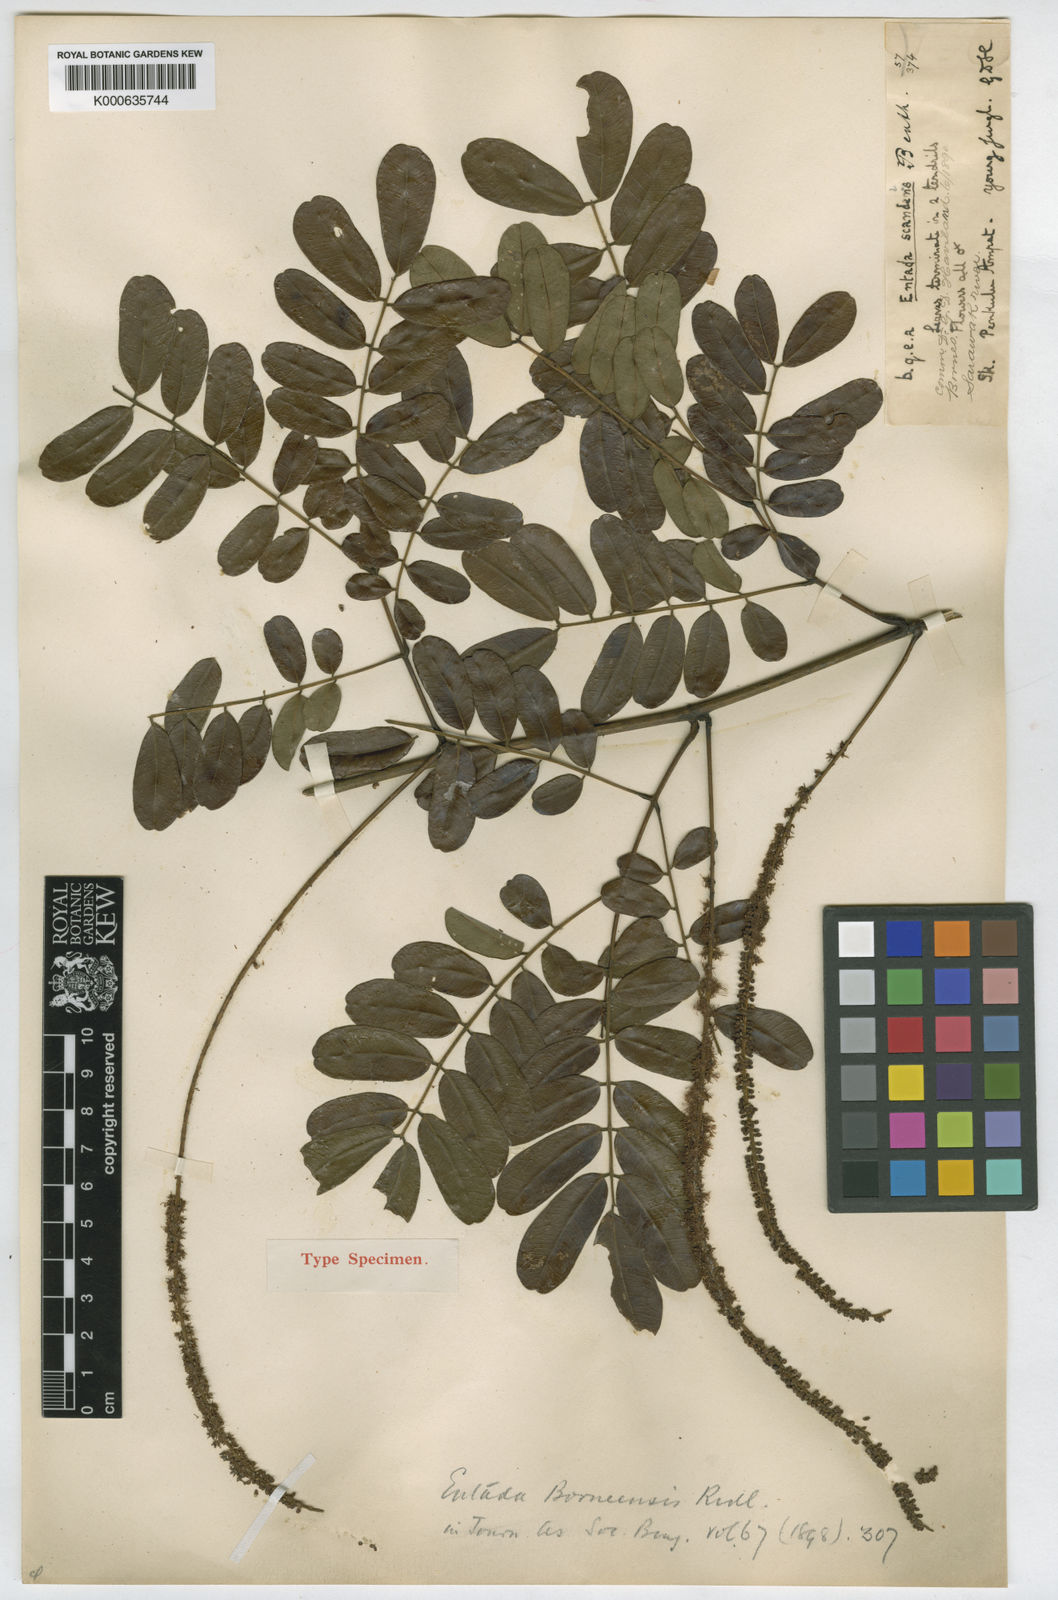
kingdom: Plantae
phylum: Tracheophyta
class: Magnoliopsida
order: Fabales
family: Fabaceae
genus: Entada
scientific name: Entada borneensis
